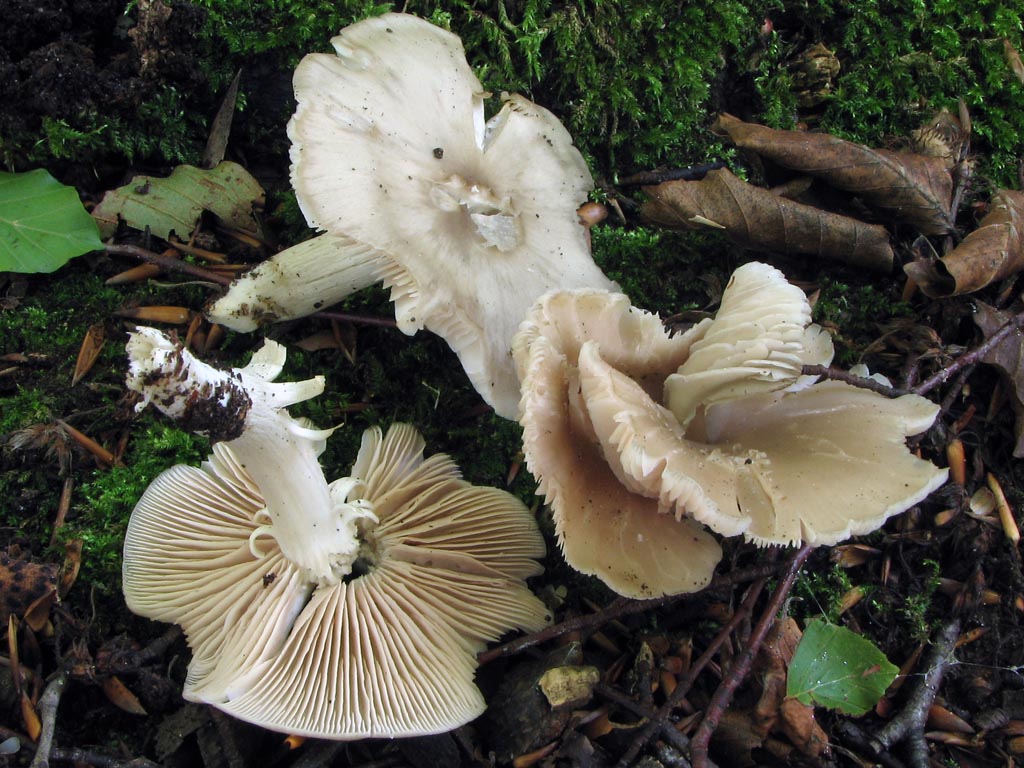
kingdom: Fungi
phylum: Basidiomycota
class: Agaricomycetes
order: Agaricales
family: Entolomataceae
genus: Entoloma
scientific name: Entoloma rhodopolium
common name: skov-rødblad
